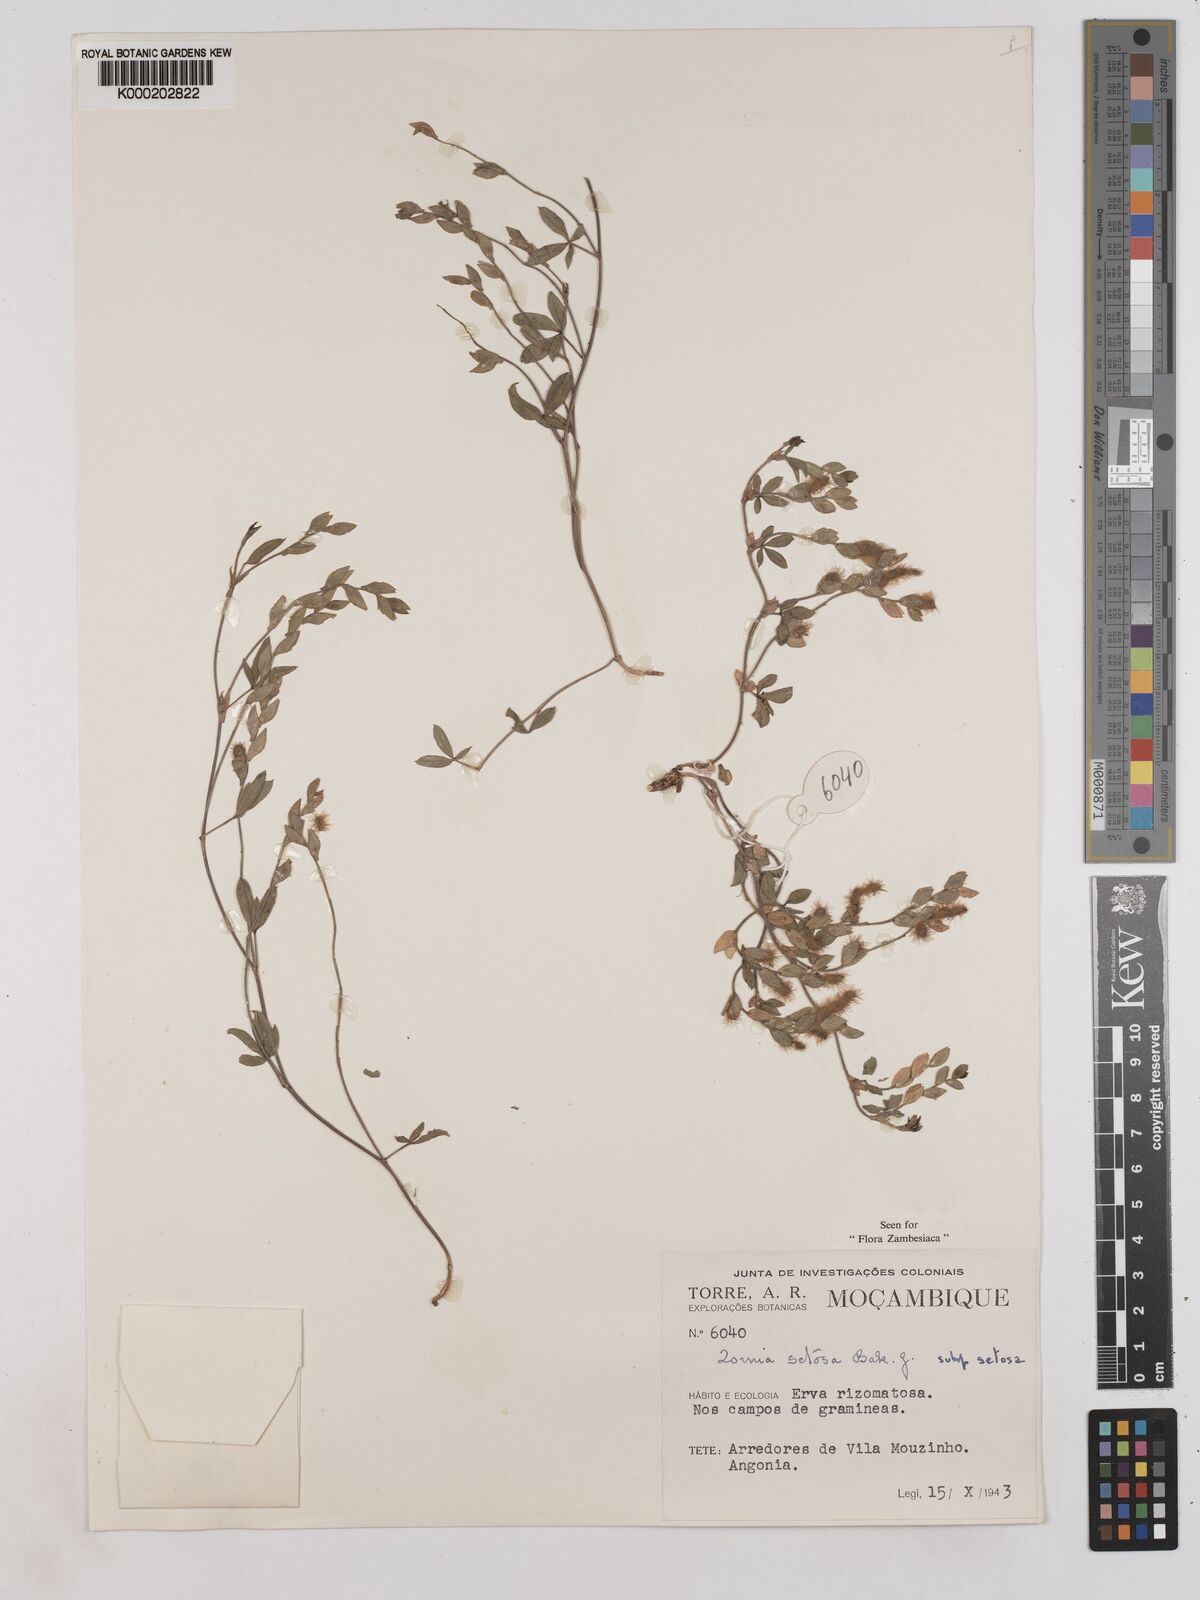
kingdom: Plantae
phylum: Tracheophyta
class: Magnoliopsida
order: Fabales
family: Fabaceae
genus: Zornia
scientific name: Zornia setosa
